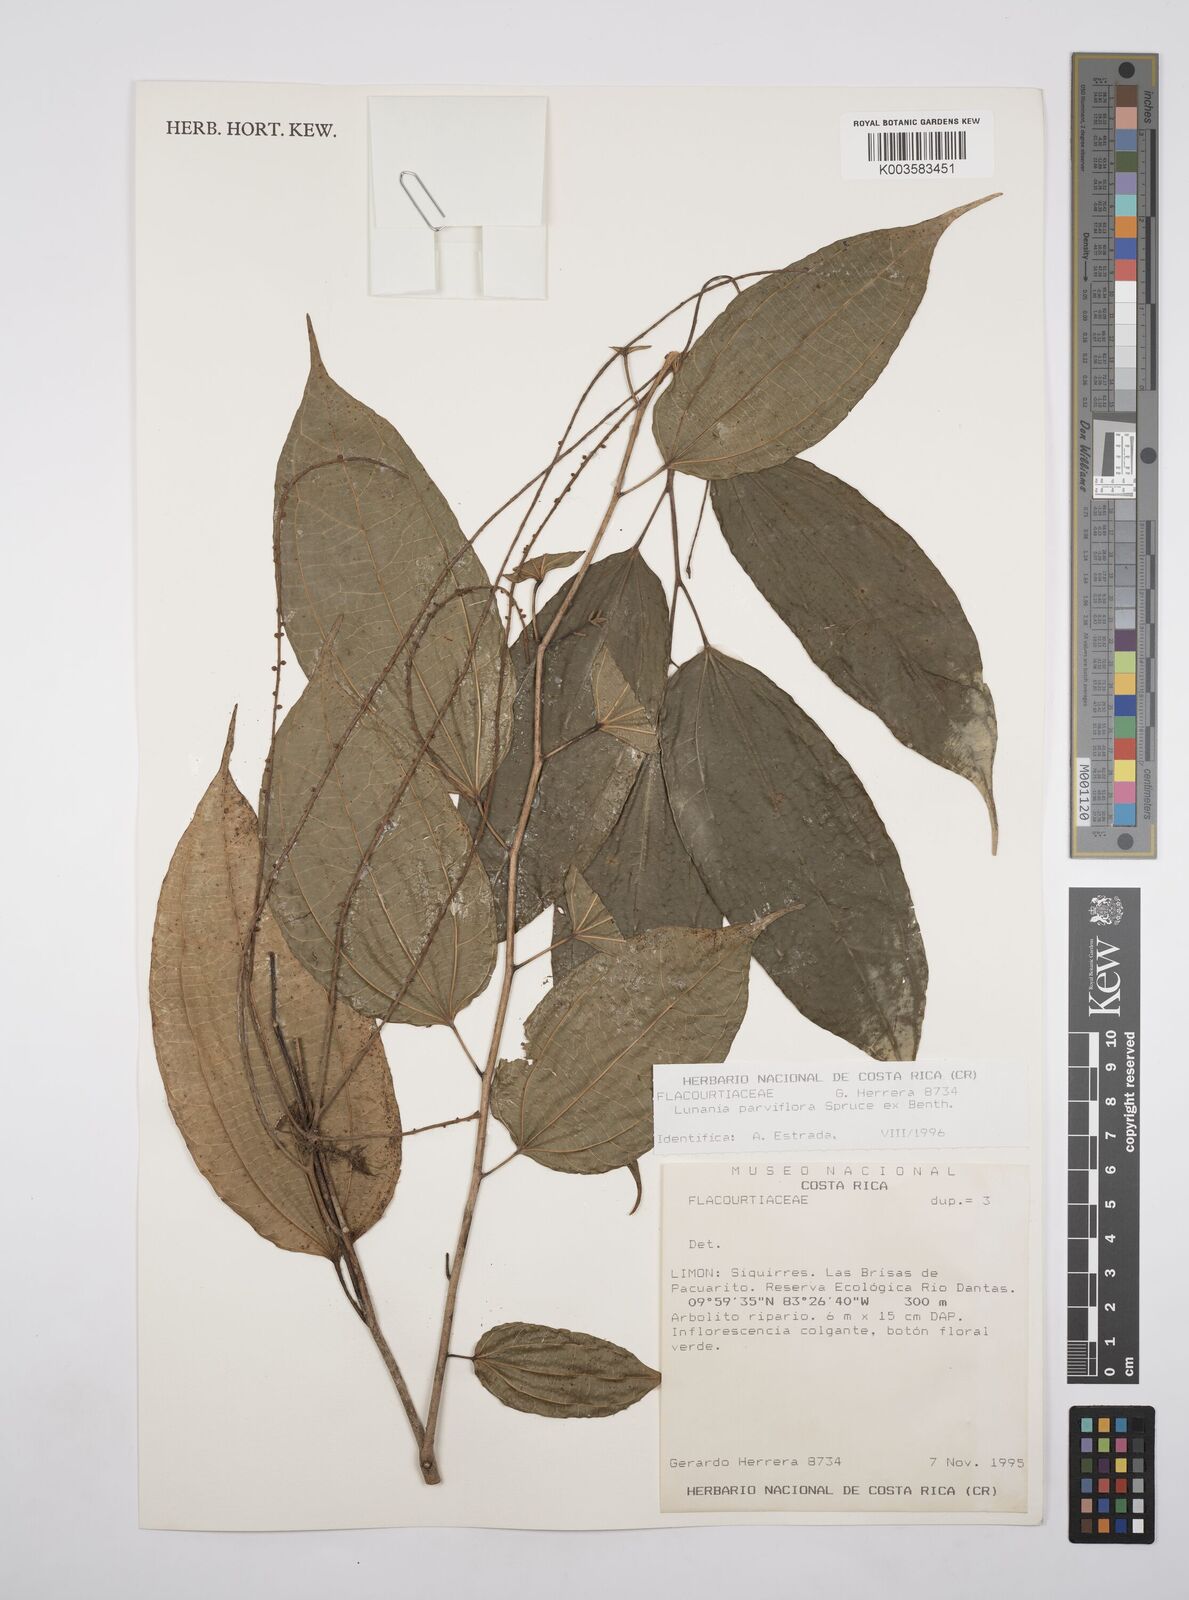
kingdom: Plantae
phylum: Tracheophyta
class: Magnoliopsida
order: Malpighiales
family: Salicaceae
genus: Lunania
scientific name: Lunania parviflora
